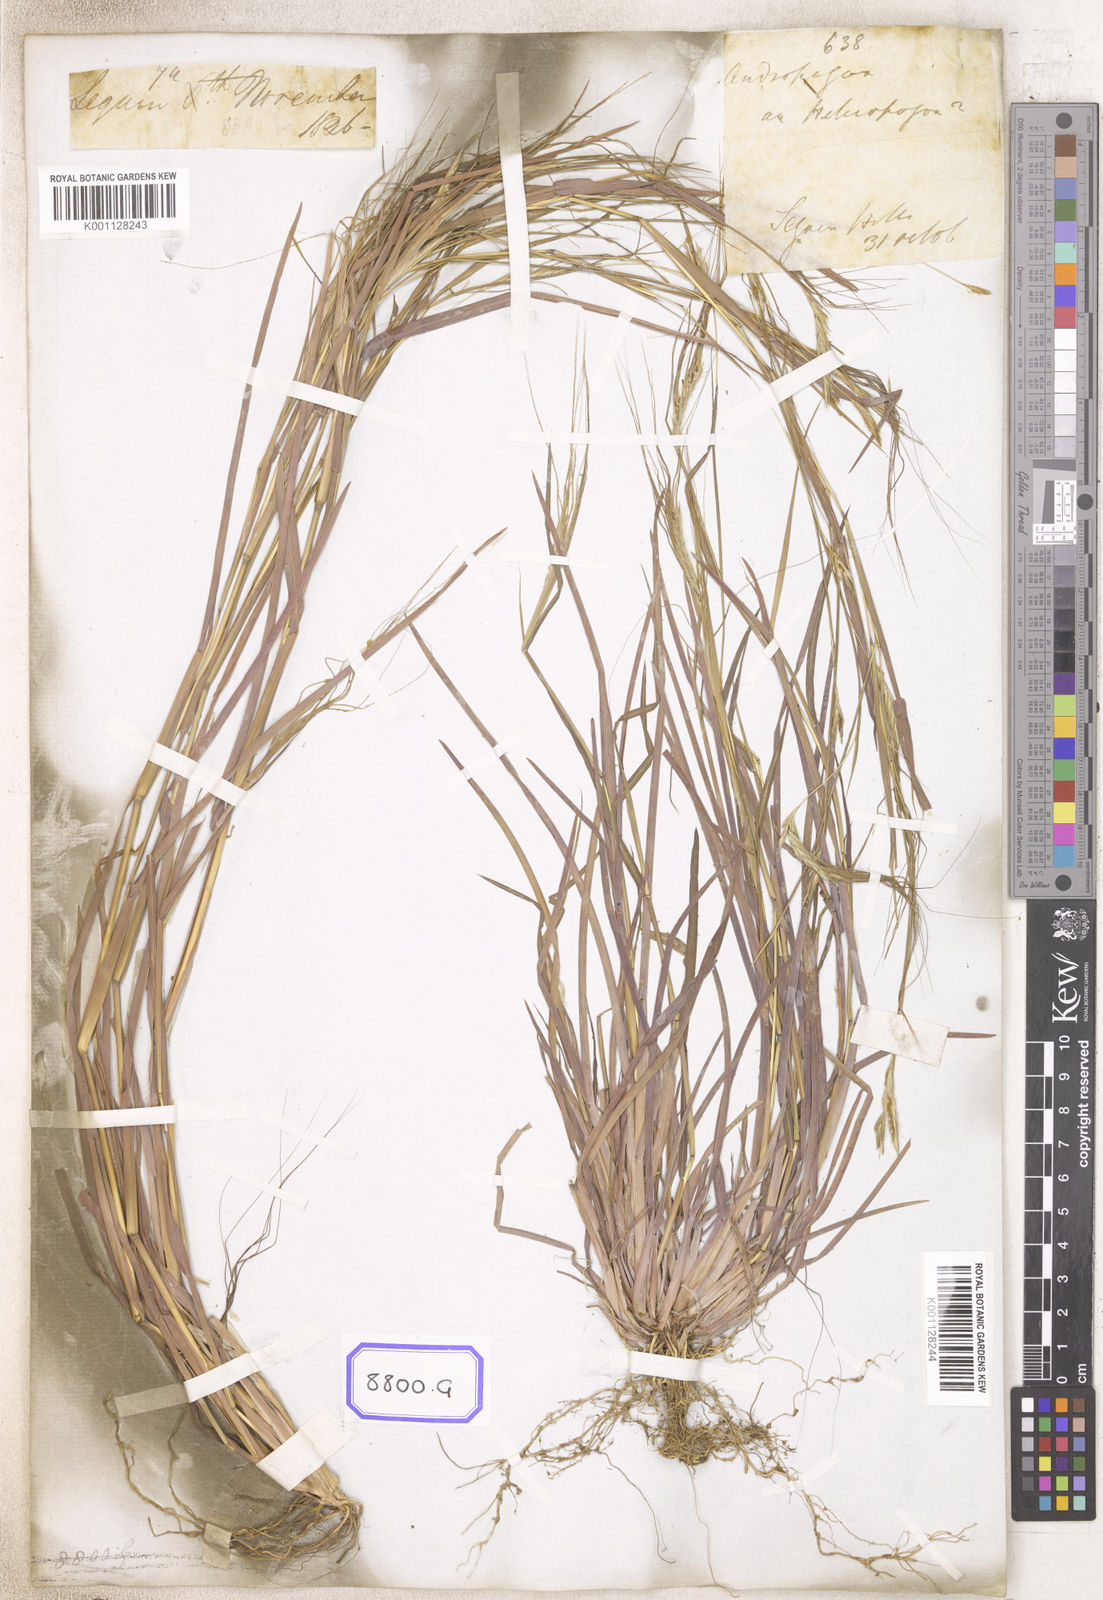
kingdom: Plantae
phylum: Tracheophyta
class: Liliopsida
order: Poales
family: Poaceae
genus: Heteropogon
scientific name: Heteropogon contortus
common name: Tanglehead
